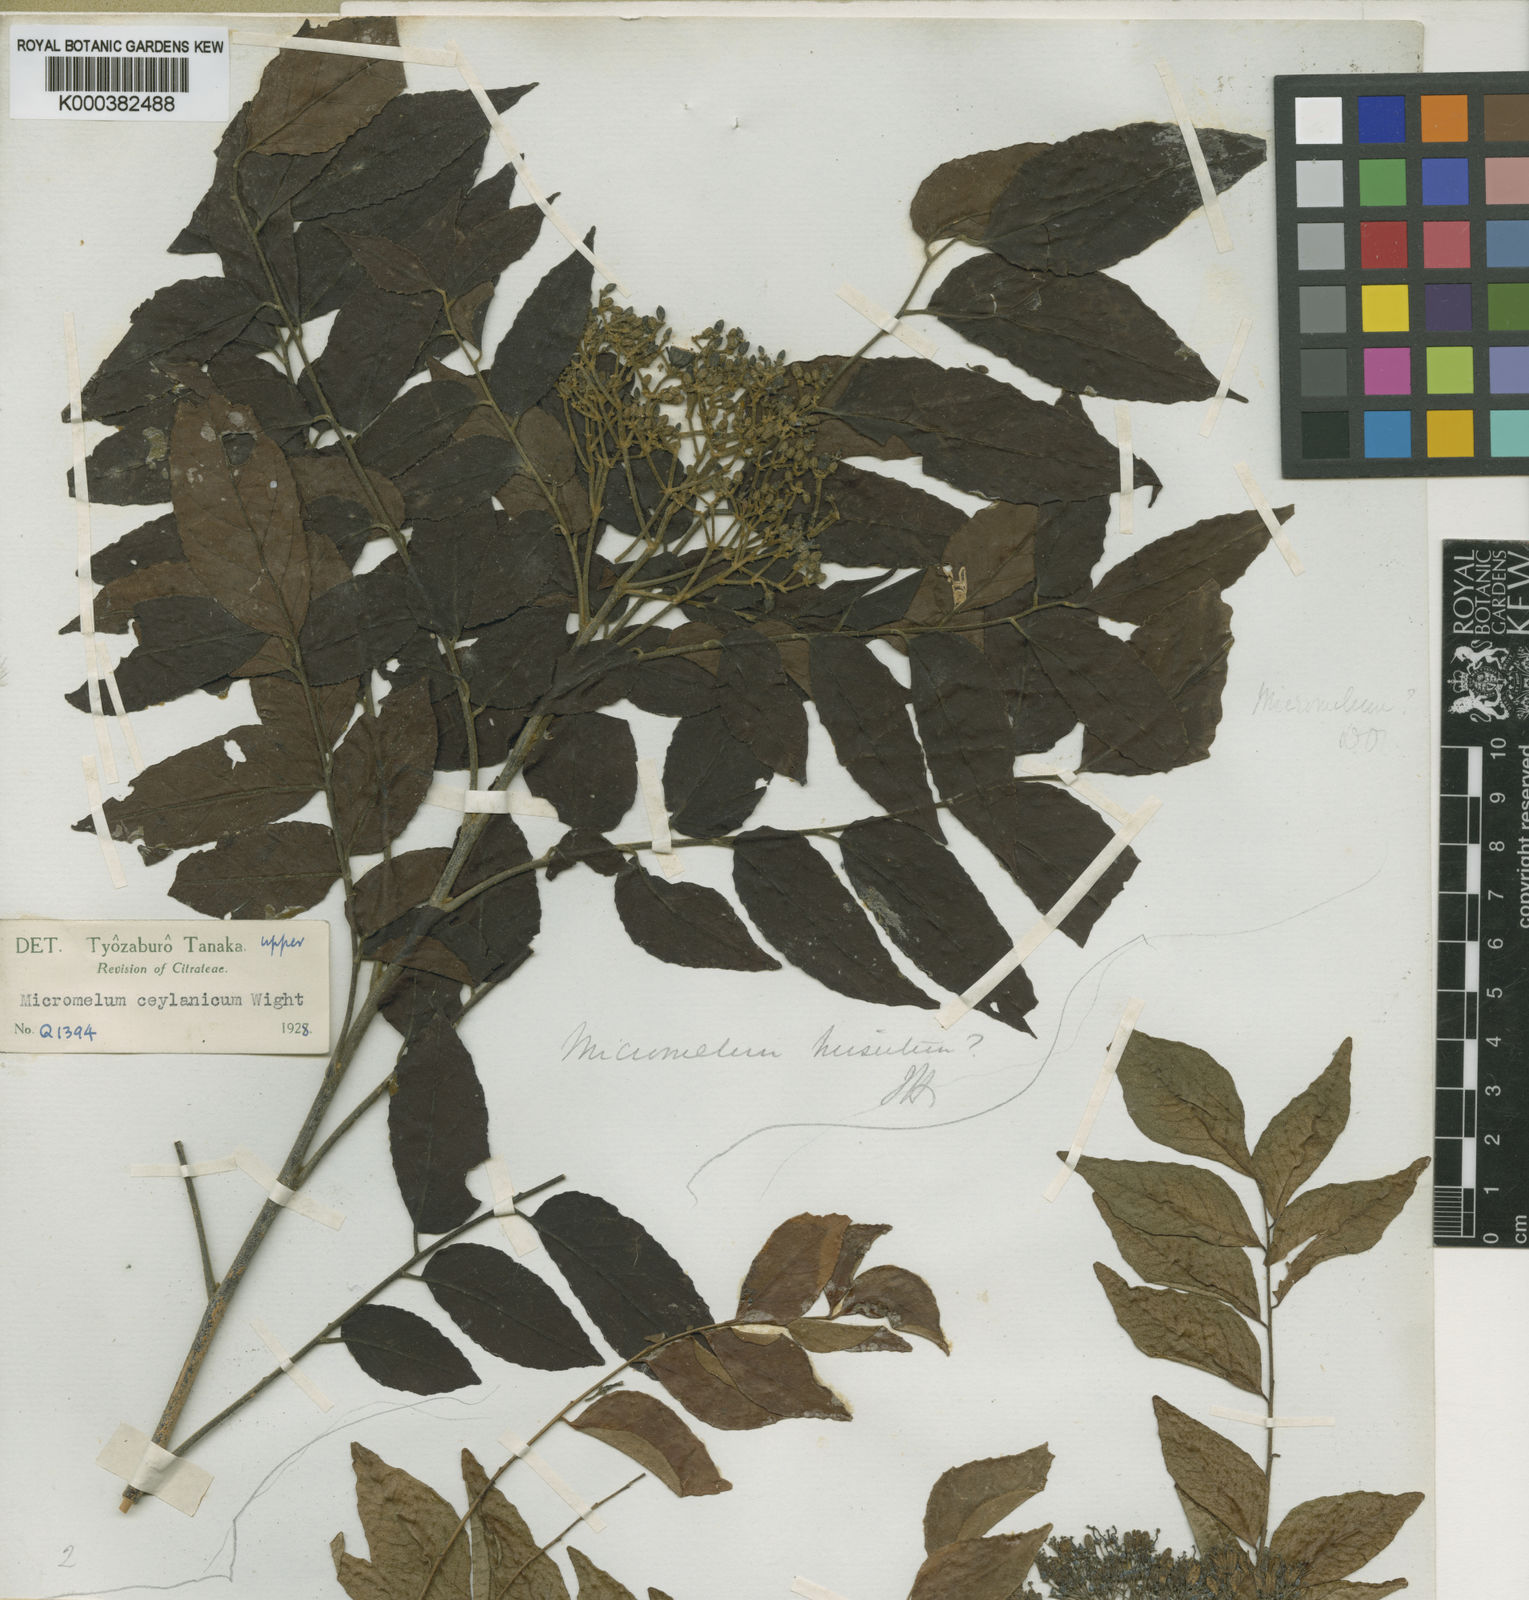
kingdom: Plantae
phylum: Tracheophyta
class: Magnoliopsida
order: Sapindales
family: Rutaceae
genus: Micromelum
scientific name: Micromelum minutum
